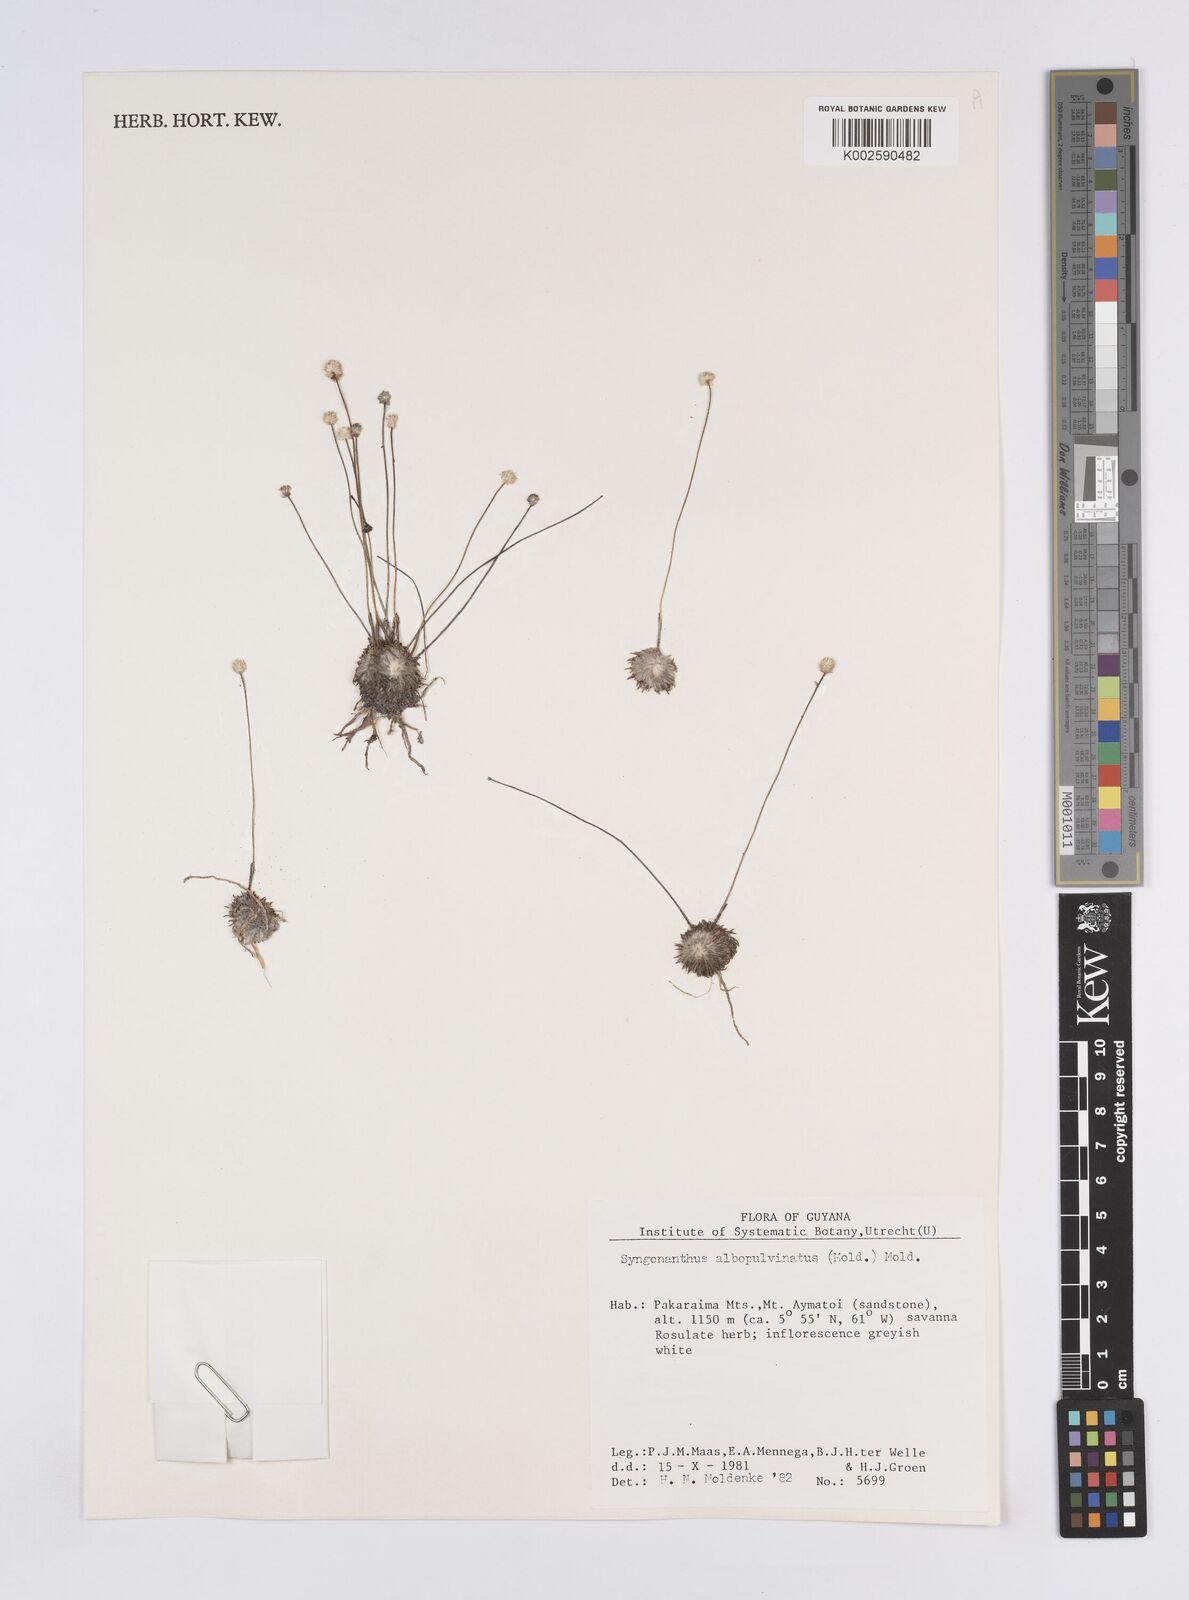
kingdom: Plantae
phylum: Tracheophyta
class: Liliopsida
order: Poales
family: Eriocaulaceae
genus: Syngonanthus
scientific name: Syngonanthus albopulvinatus
